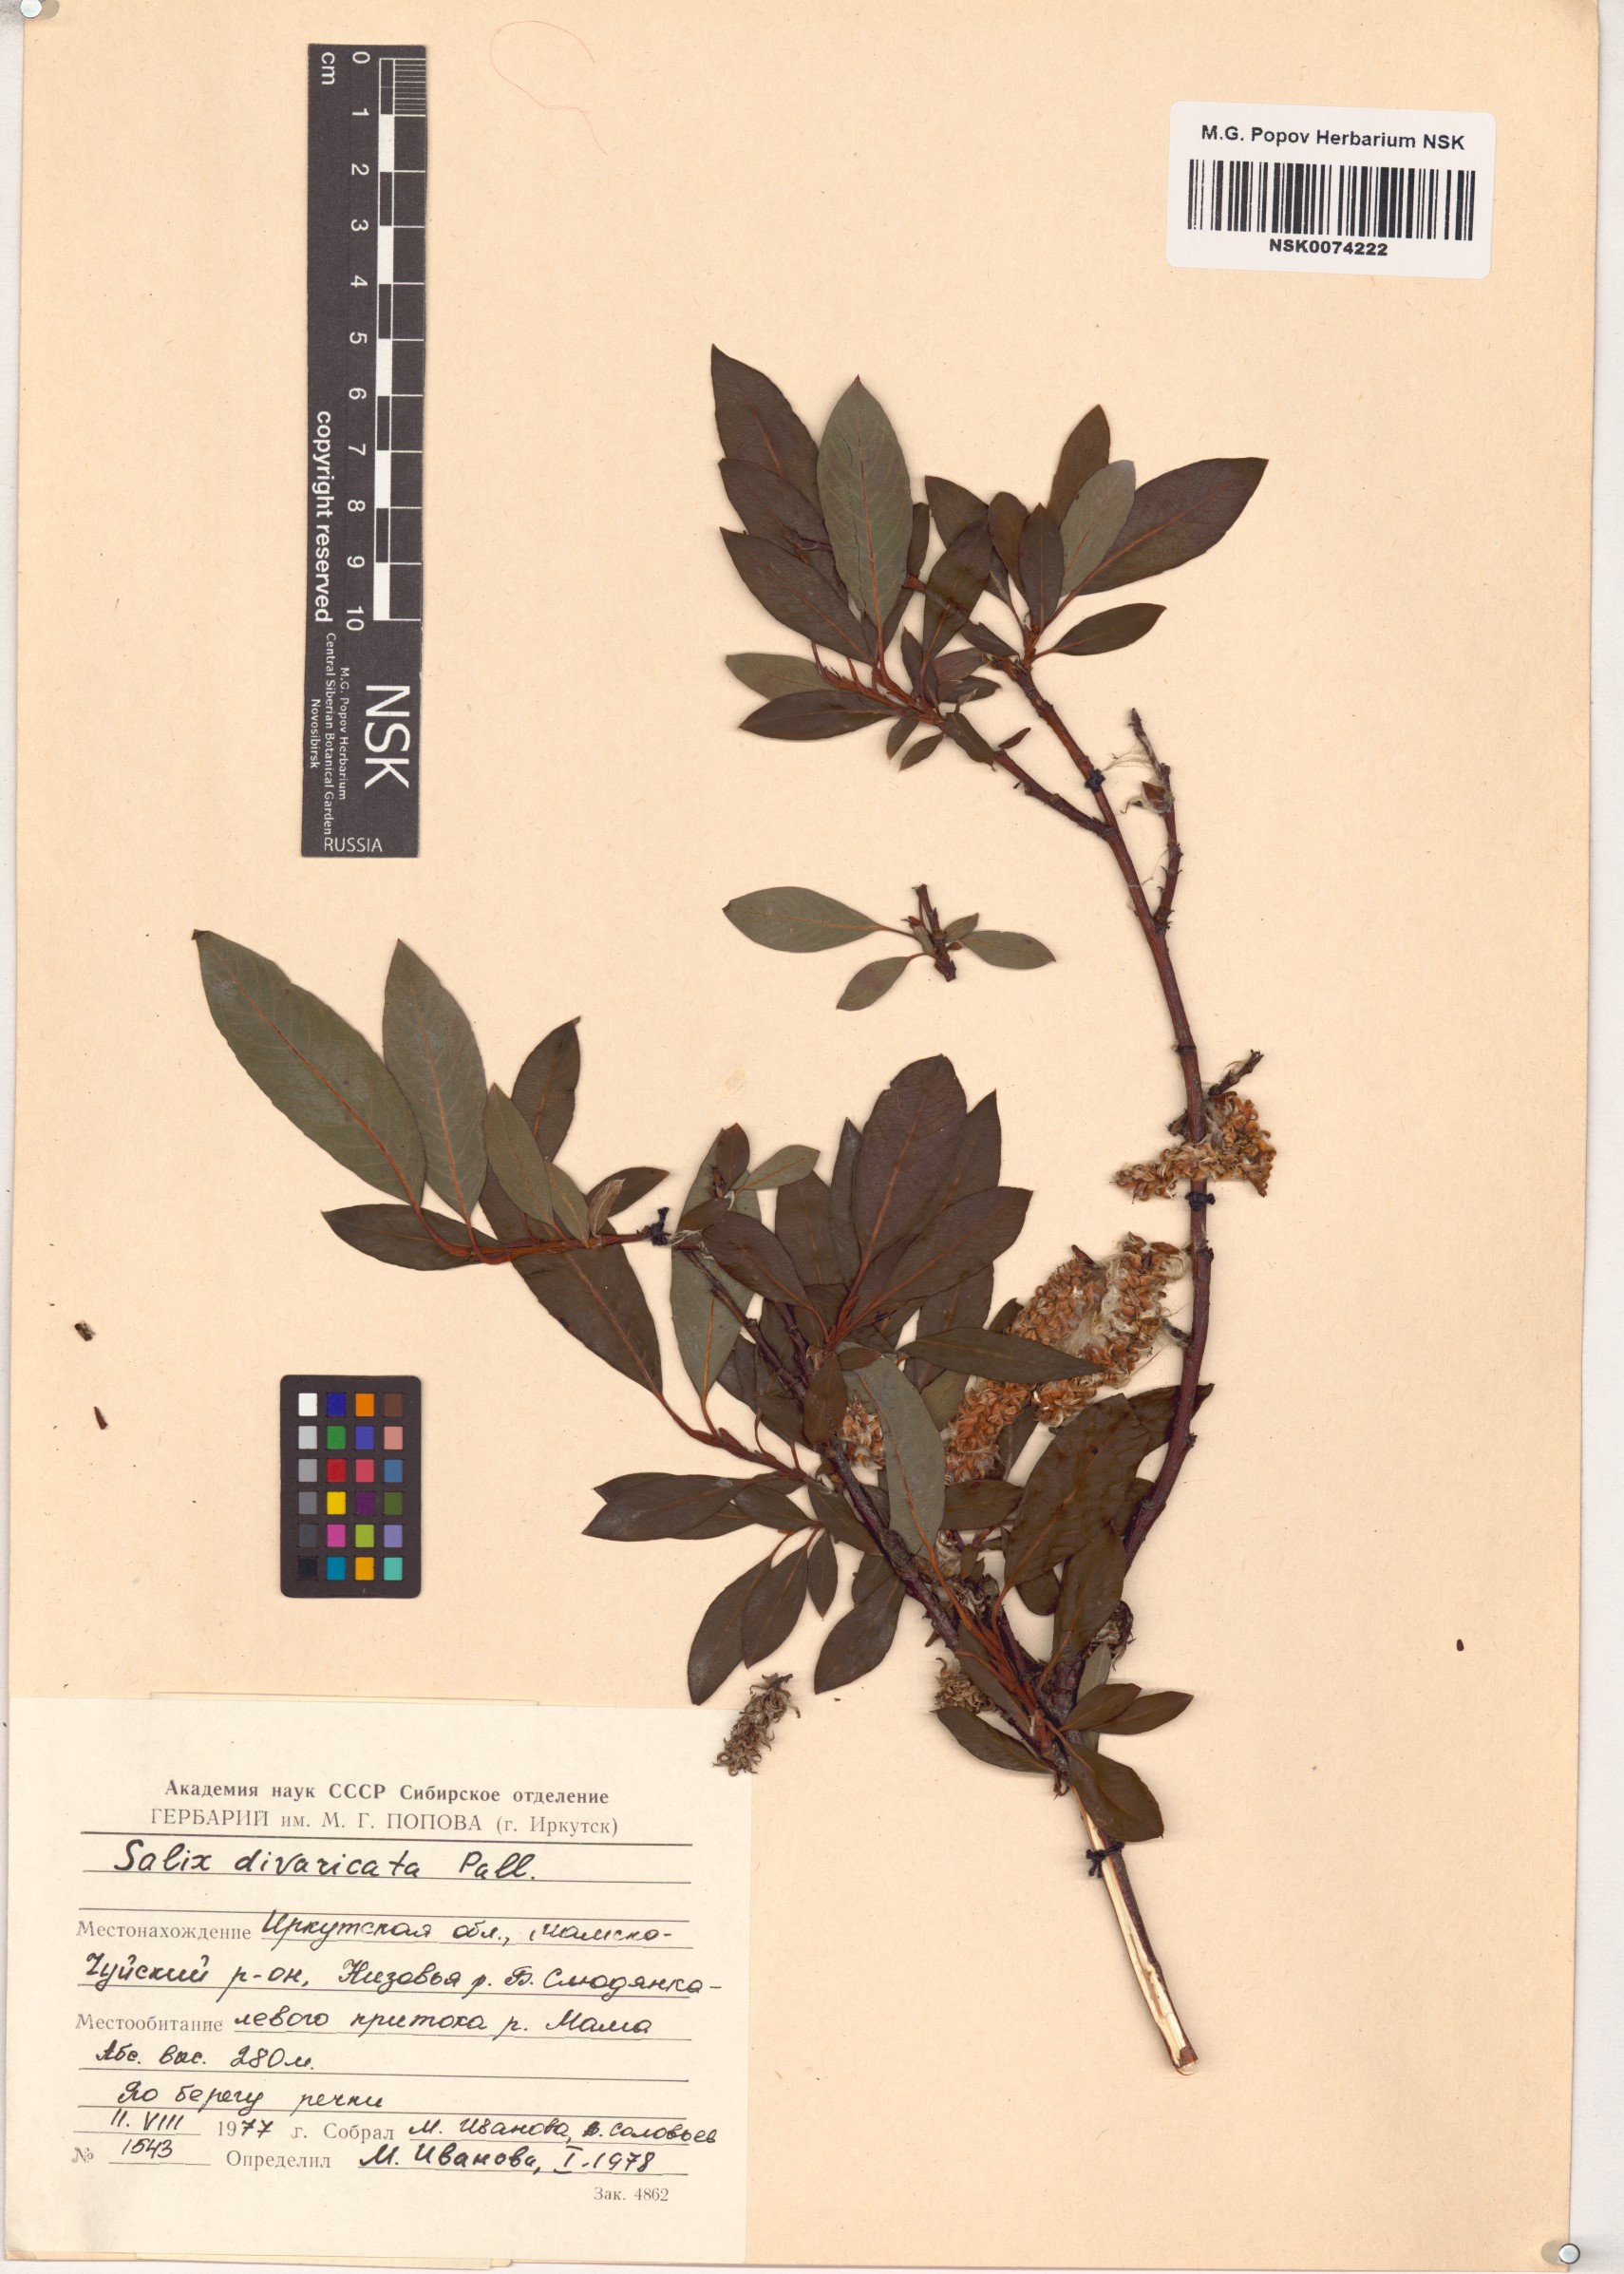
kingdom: Plantae
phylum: Tracheophyta
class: Magnoliopsida
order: Malpighiales
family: Salicaceae
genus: Salix
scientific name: Salix divaricata
